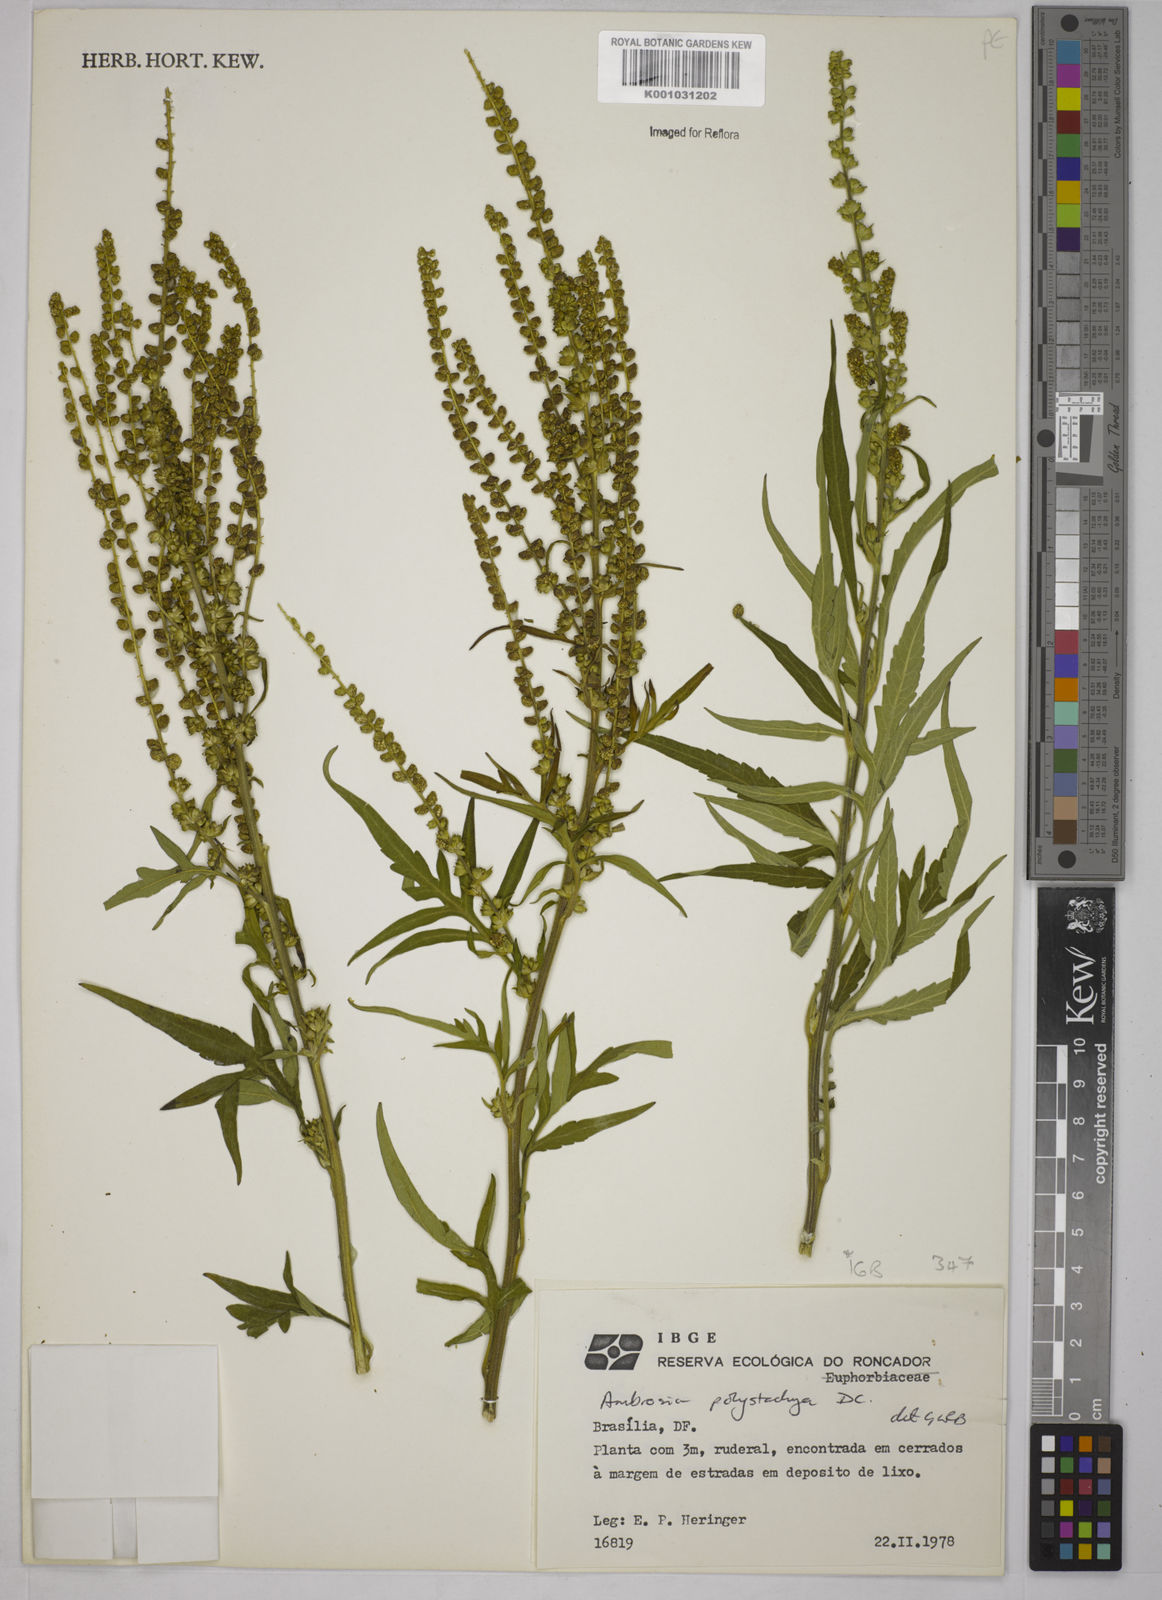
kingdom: Plantae
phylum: Tracheophyta
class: Magnoliopsida
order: Asterales
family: Asteraceae
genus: Ambrosia
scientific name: Ambrosia polystachya
